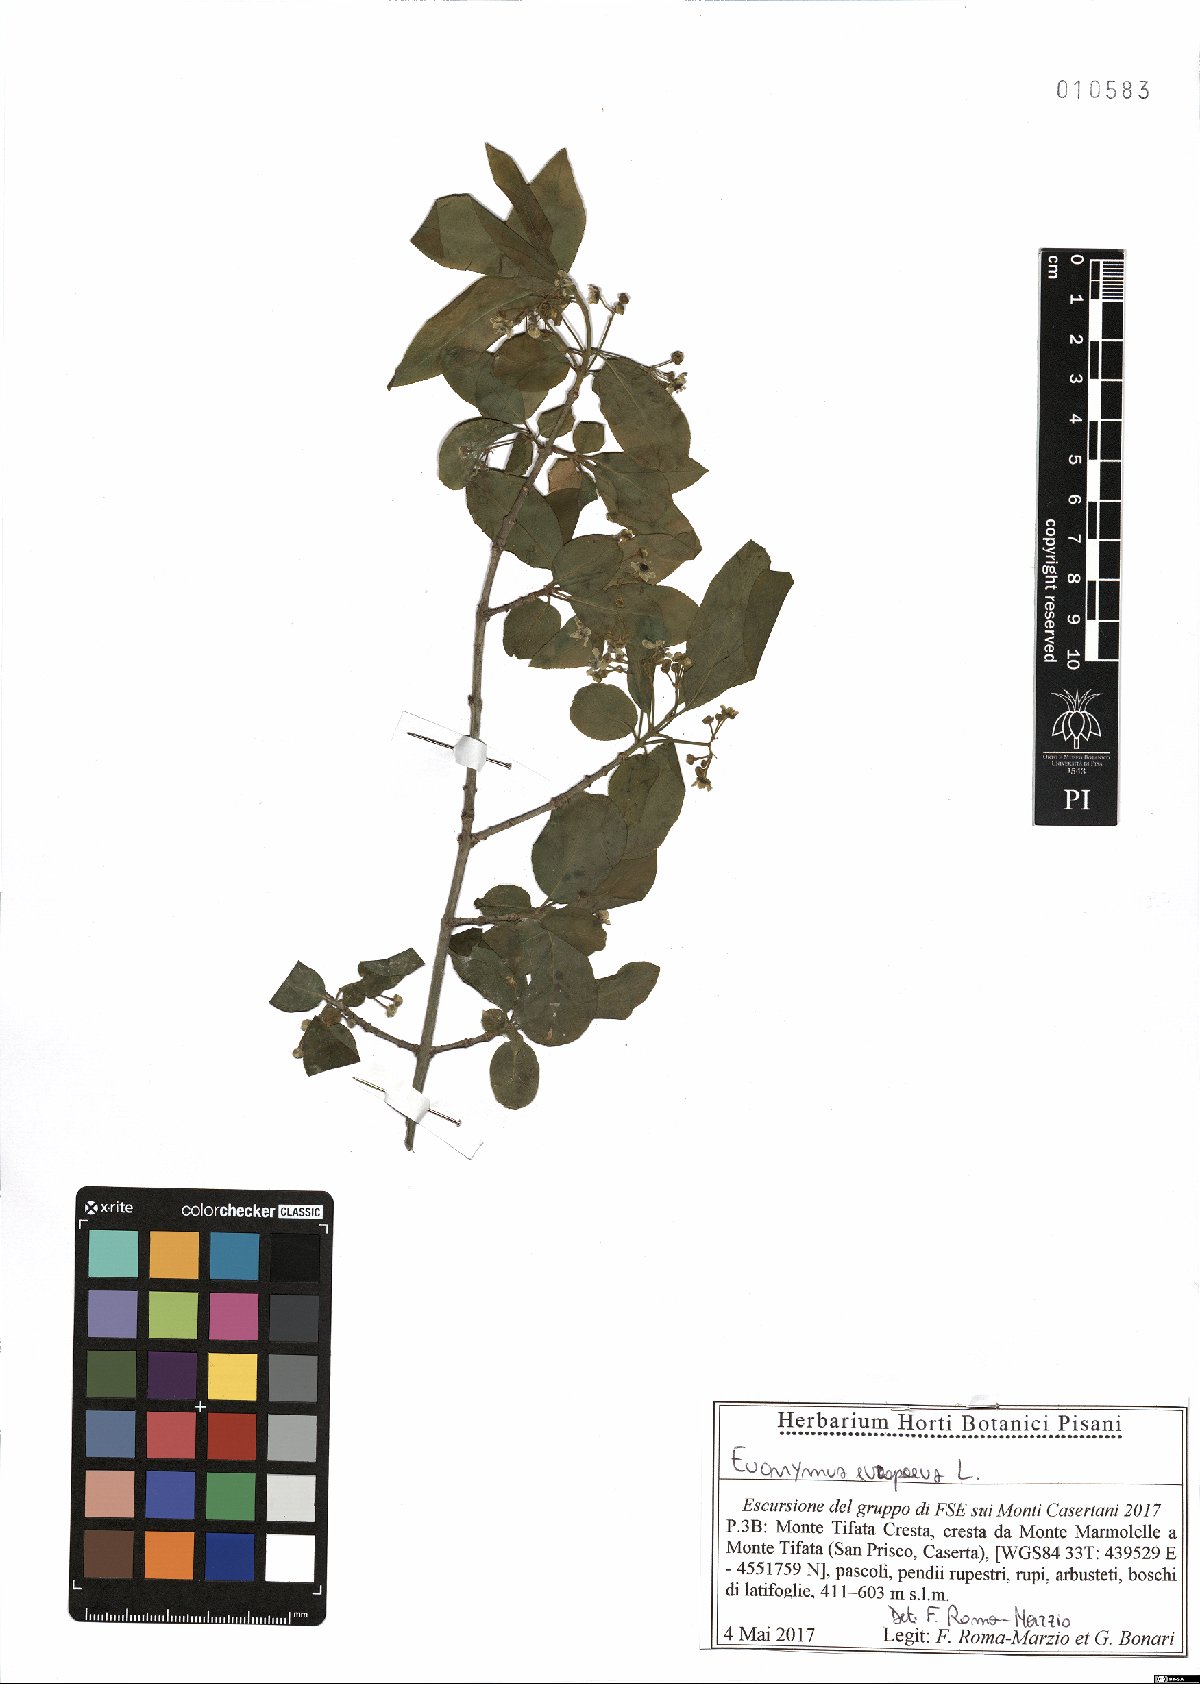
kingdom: Plantae
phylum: Tracheophyta
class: Magnoliopsida
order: Celastrales
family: Celastraceae
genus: Euonymus
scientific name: Euonymus europaeus
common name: Spindle
